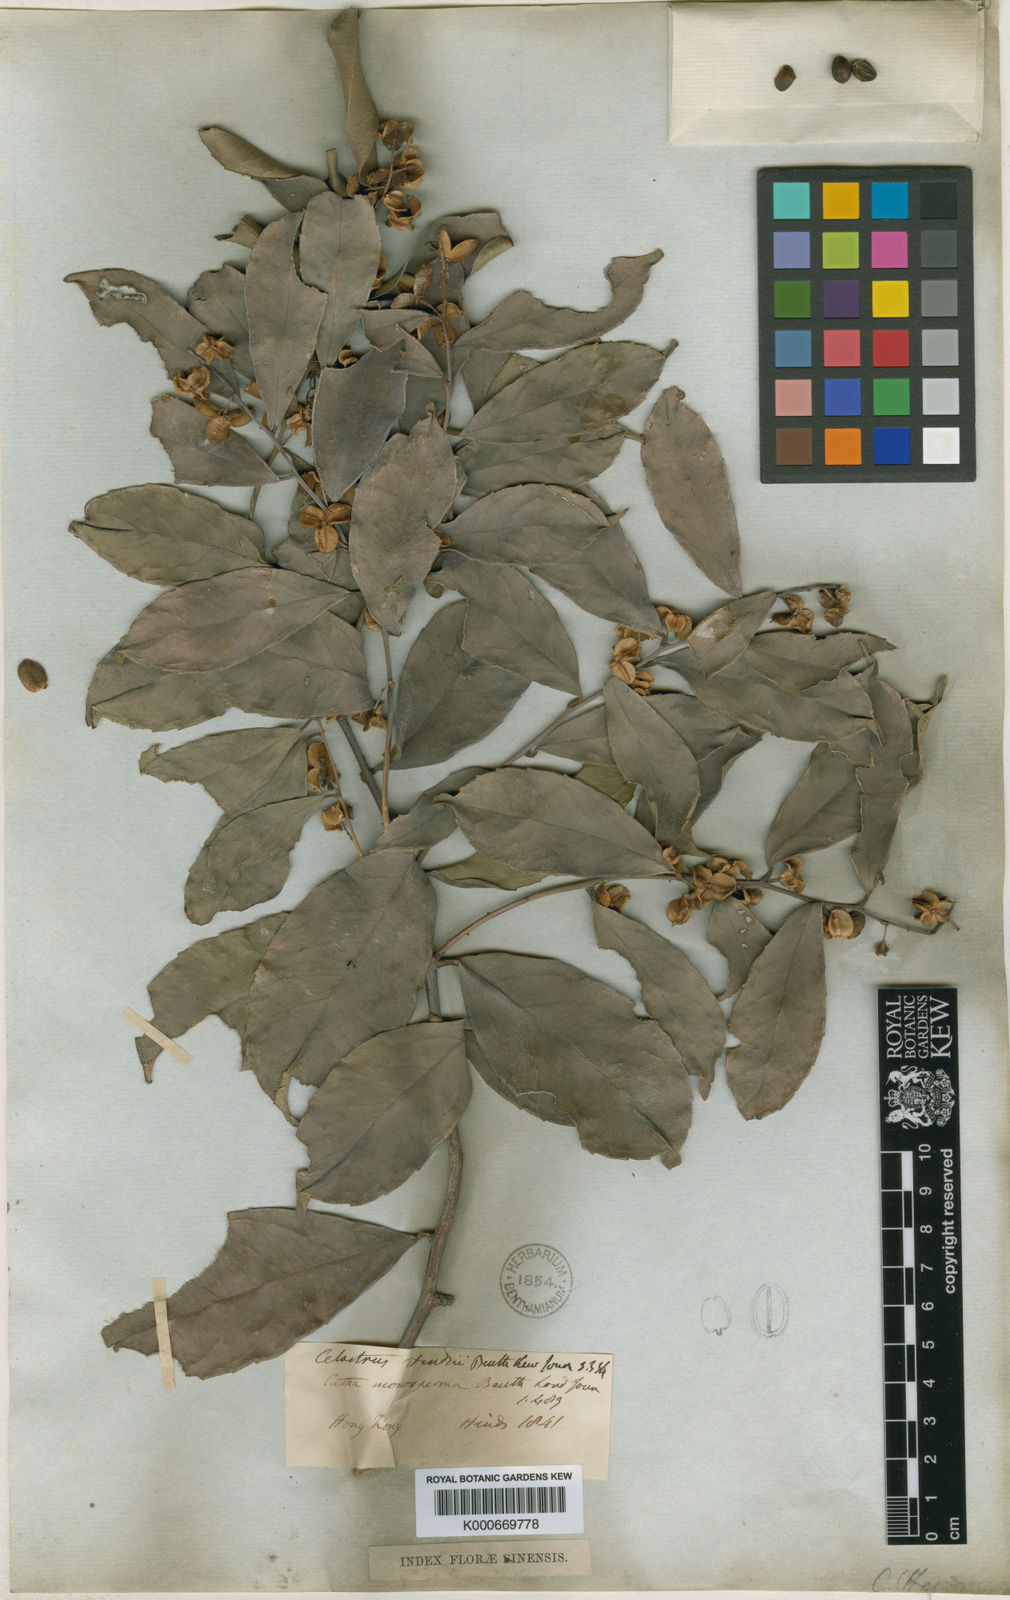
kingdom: Plantae
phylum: Tracheophyta
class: Magnoliopsida
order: Celastrales
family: Celastraceae
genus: Celastrus
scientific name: Celastrus hindsii
